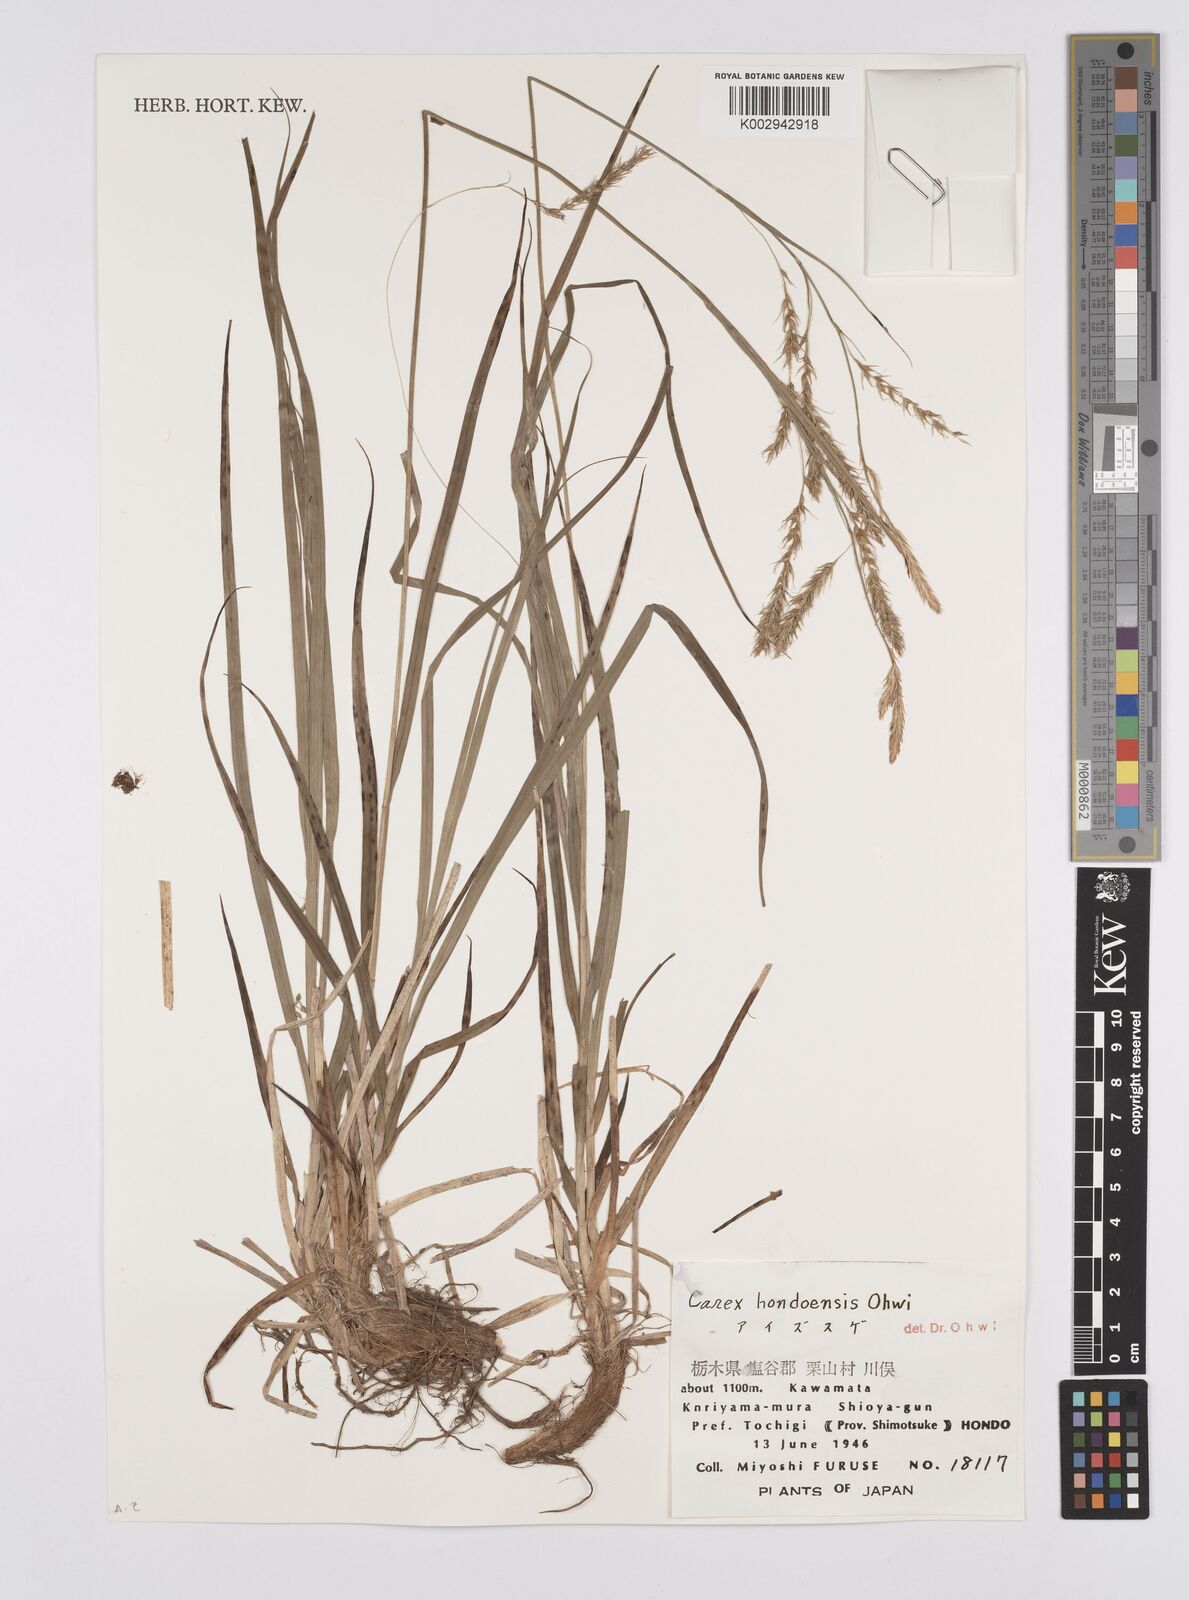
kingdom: Plantae
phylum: Tracheophyta
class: Liliopsida
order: Poales
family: Cyperaceae
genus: Carex
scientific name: Carex hondoensis
